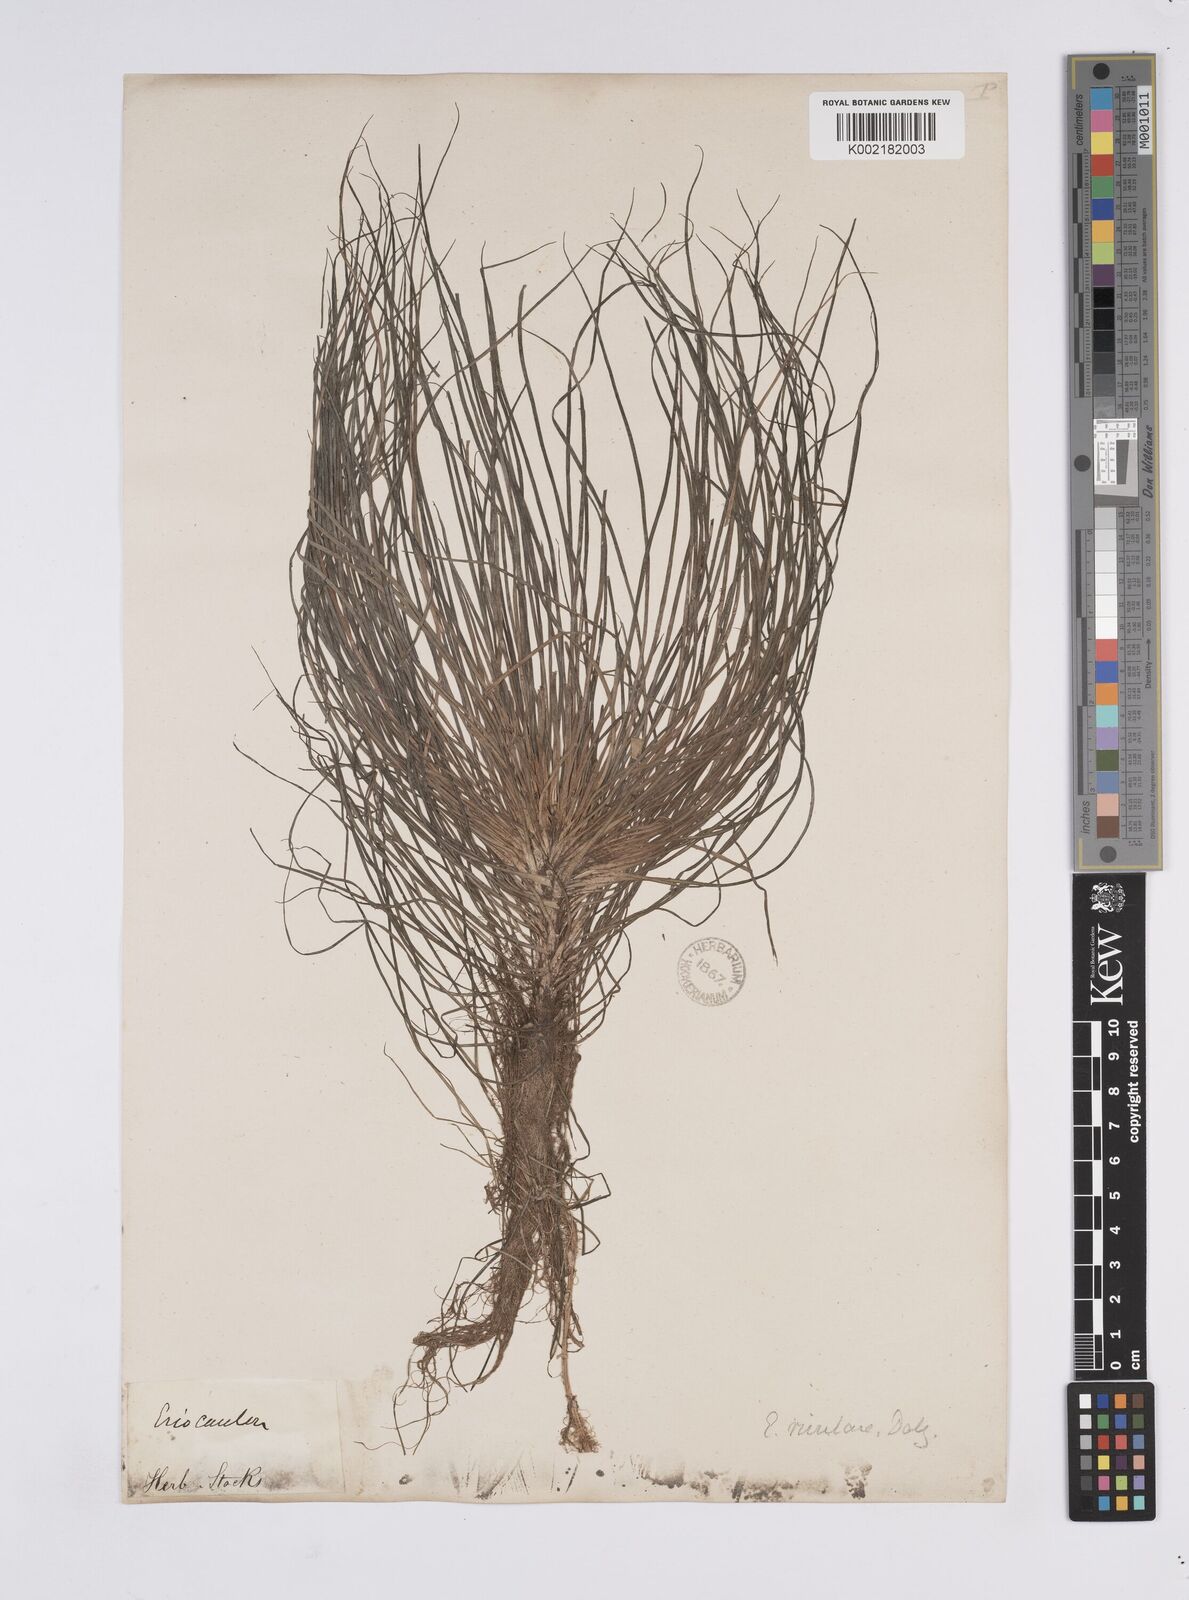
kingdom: Plantae
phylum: Tracheophyta
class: Liliopsida
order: Poales
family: Eriocaulaceae
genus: Eriocaulon
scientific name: Eriocaulon dalzellii
